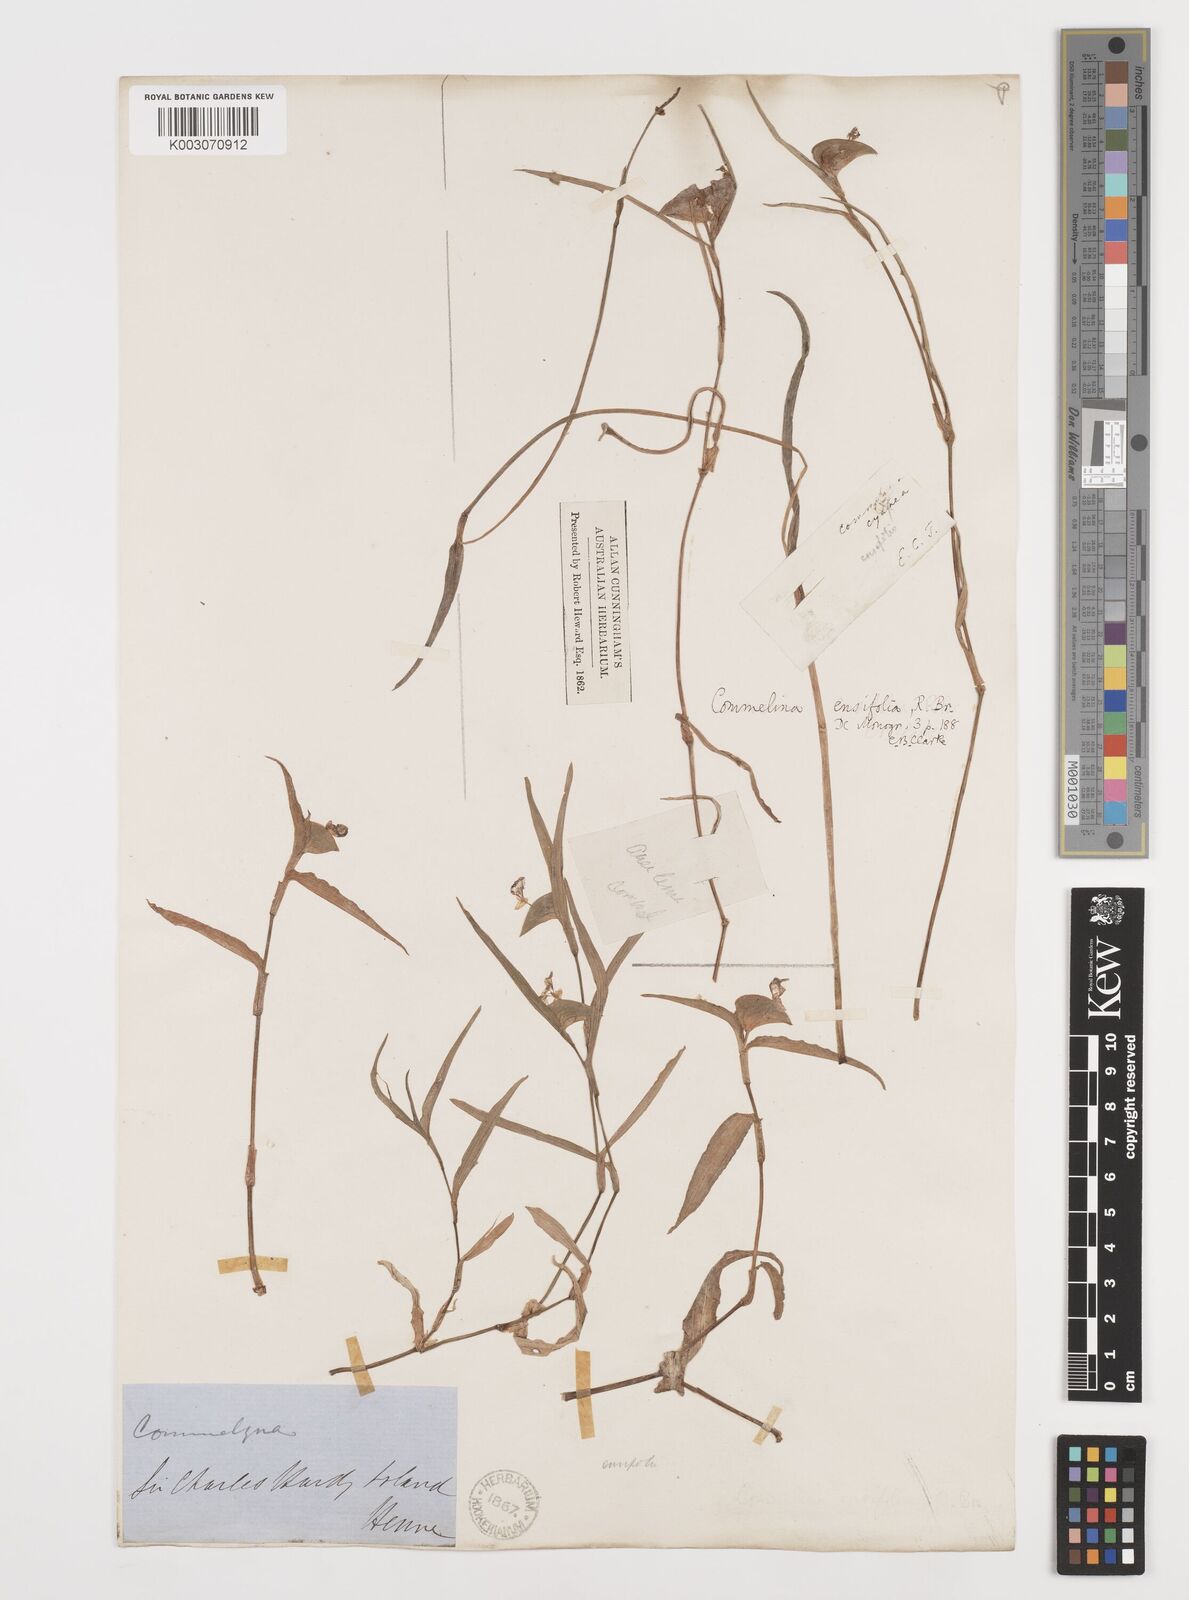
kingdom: Plantae
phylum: Tracheophyta
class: Liliopsida
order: Commelinales
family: Commelinaceae
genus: Commelina
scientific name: Commelina ensifolia
